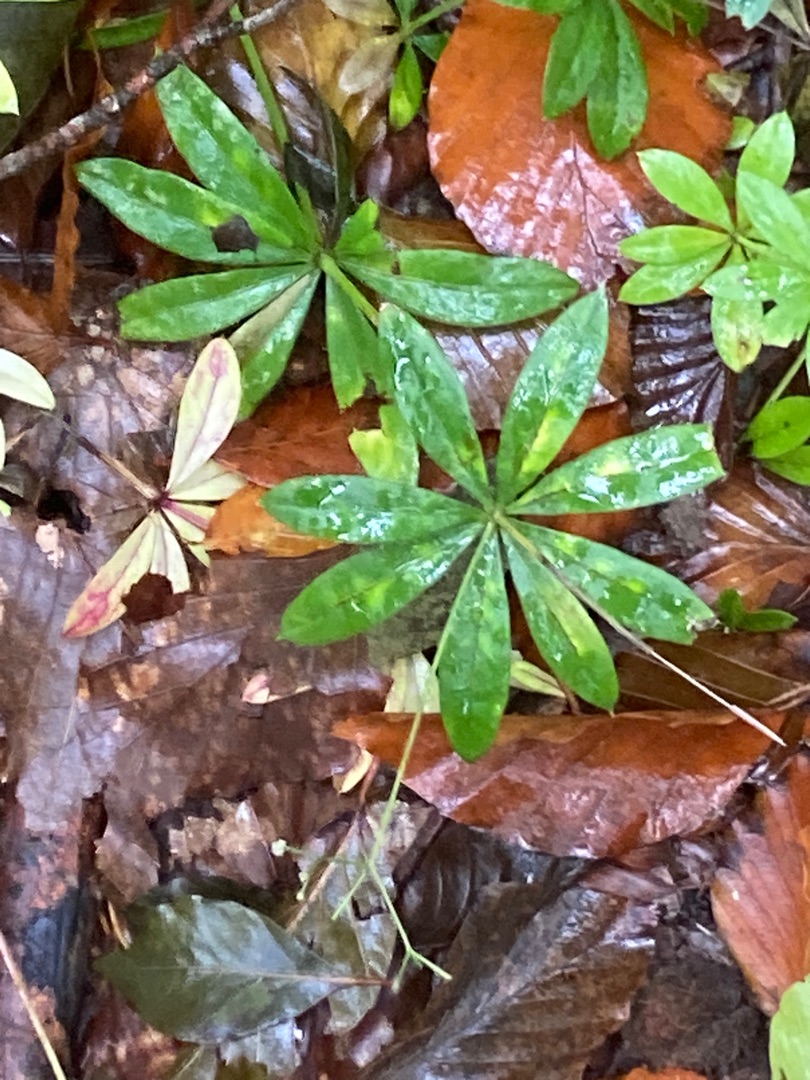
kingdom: Plantae
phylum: Tracheophyta
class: Magnoliopsida
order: Gentianales
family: Rubiaceae
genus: Galium
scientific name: Galium odoratum
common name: Skovmærke
